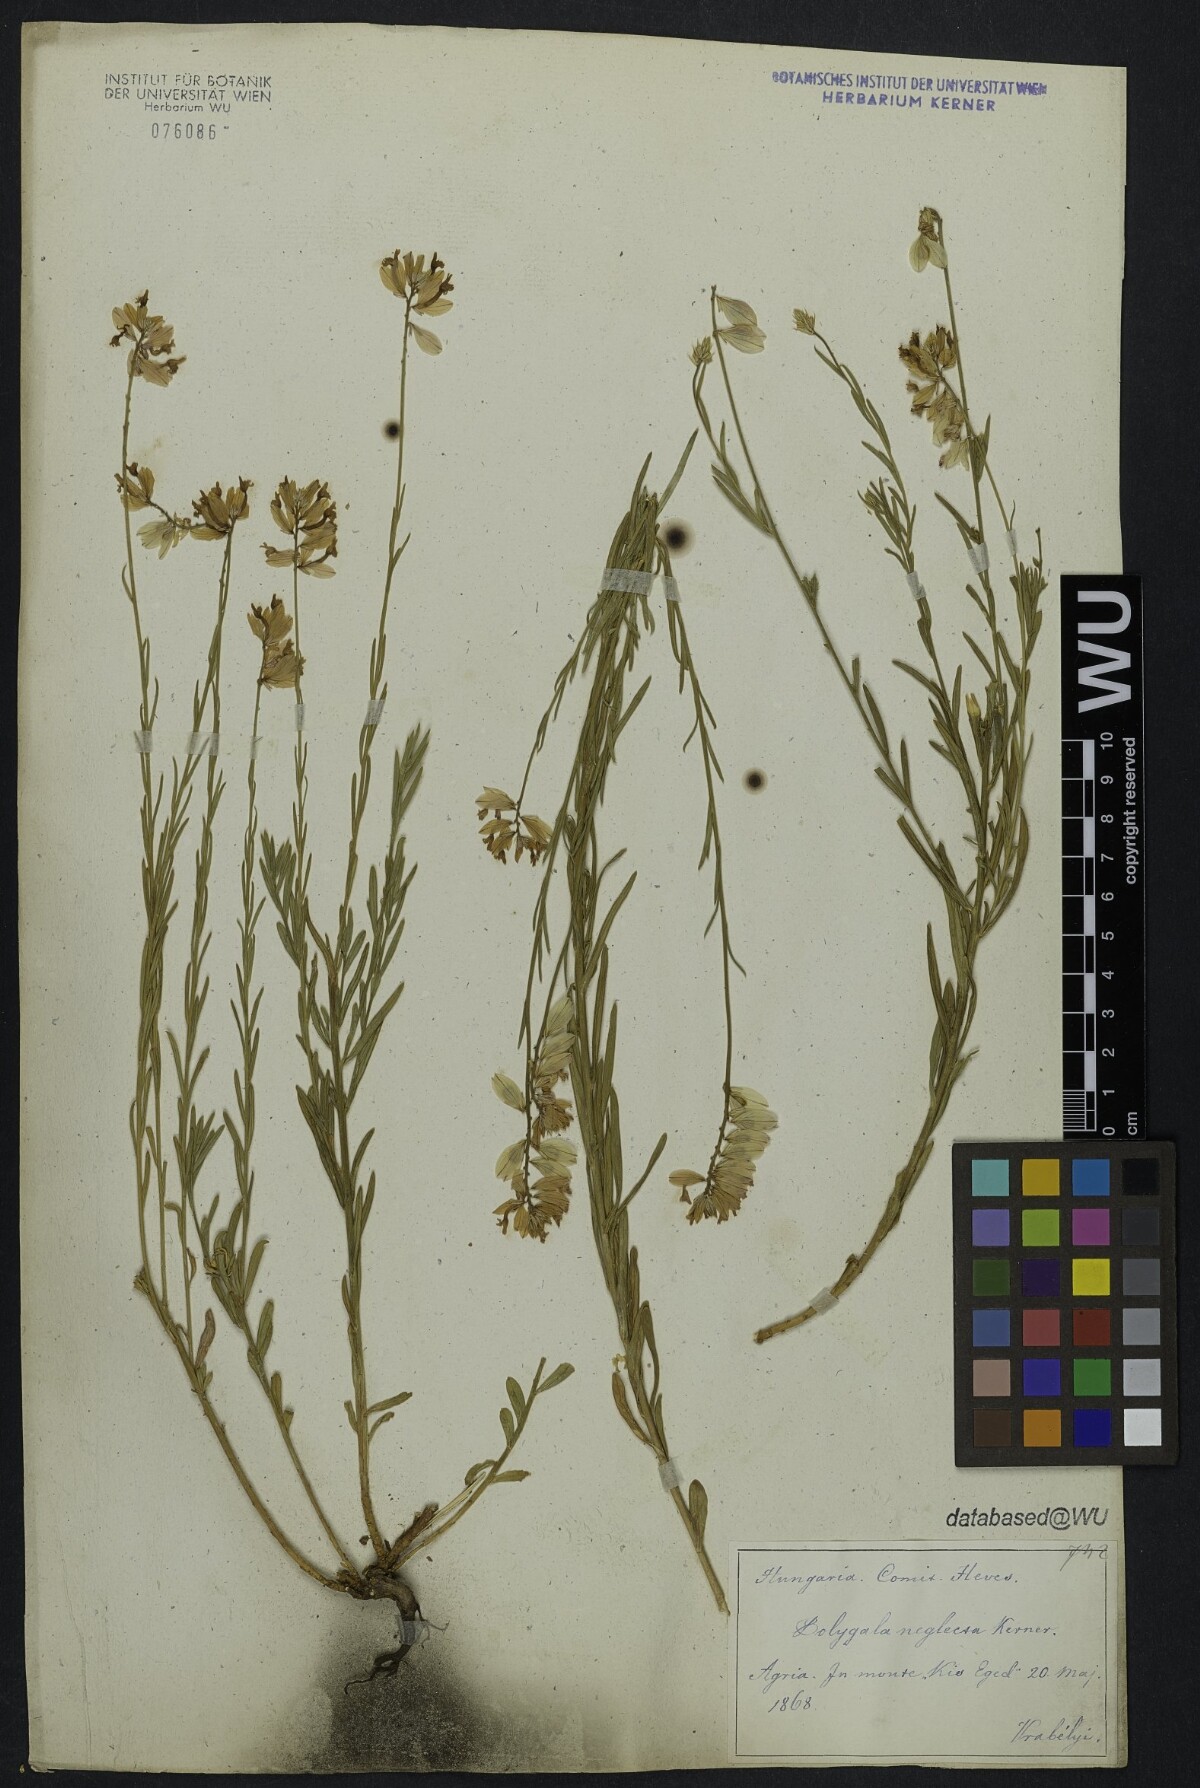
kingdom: Plantae
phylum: Tracheophyta
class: Magnoliopsida
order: Fabales
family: Polygalaceae
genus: Polygala
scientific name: Polygala major
